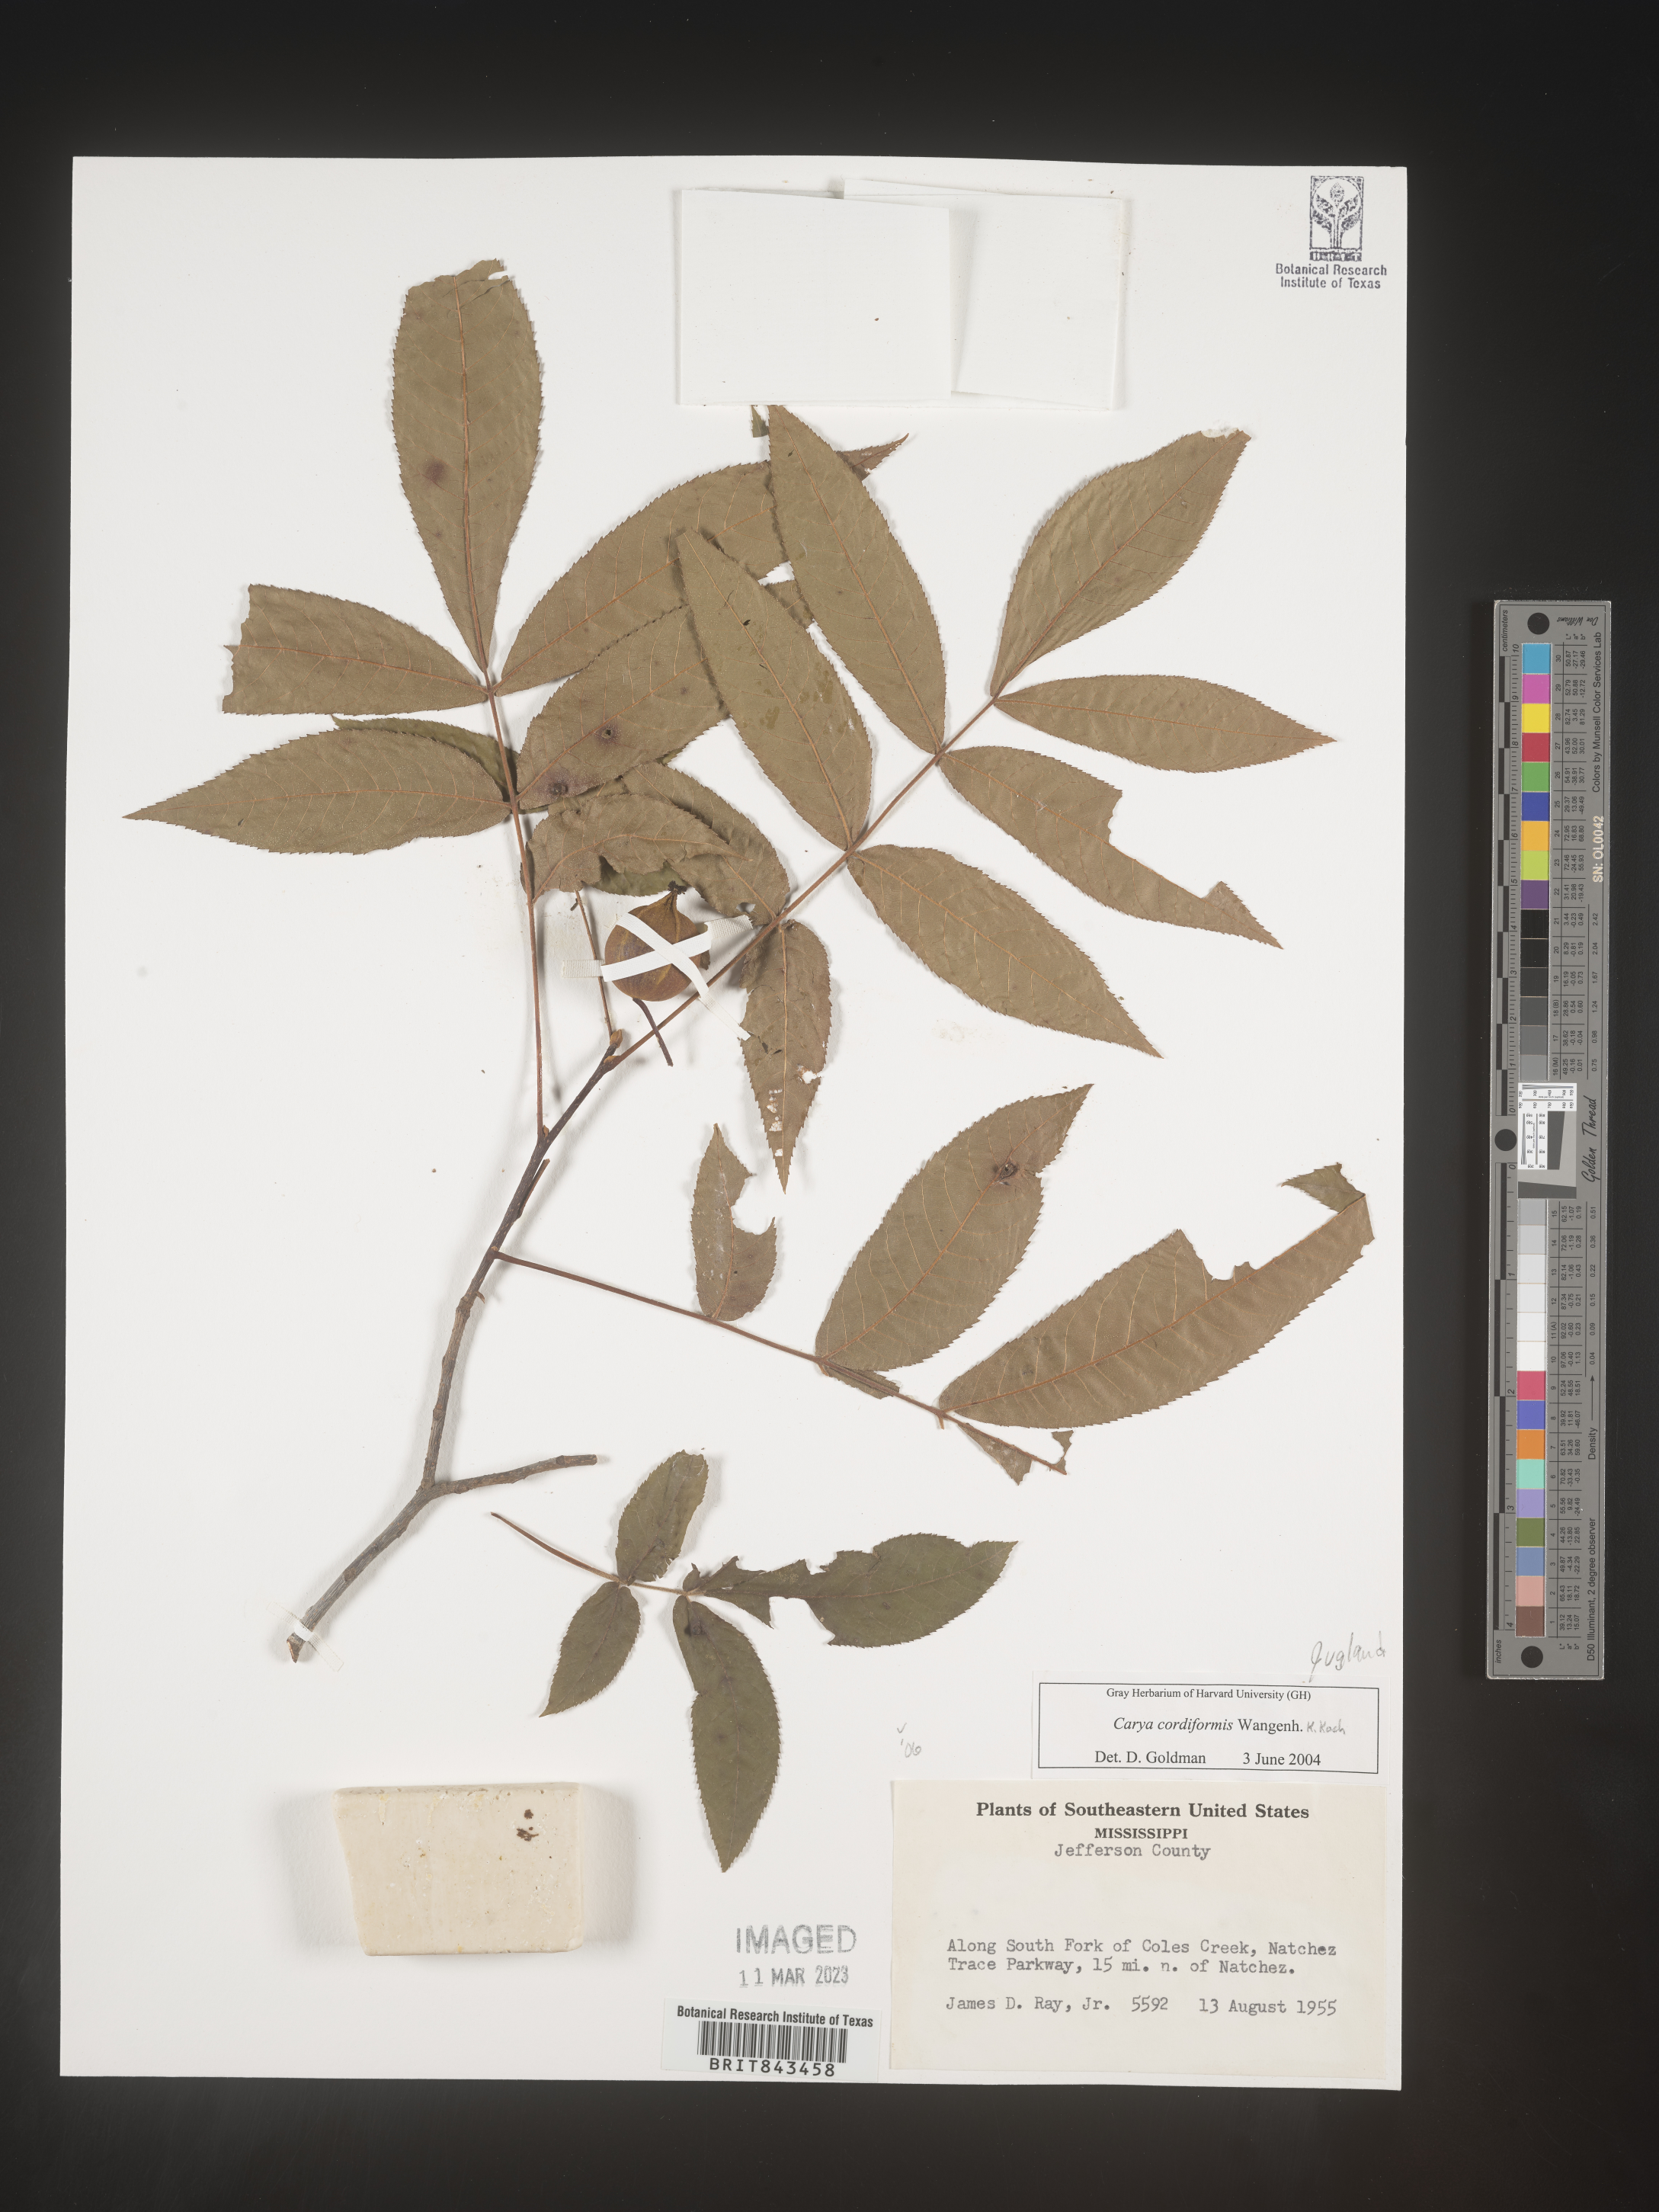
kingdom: Plantae
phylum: Tracheophyta
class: Magnoliopsida
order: Fagales
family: Juglandaceae
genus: Carya
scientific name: Carya cordiformis
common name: Bitternut hickory
